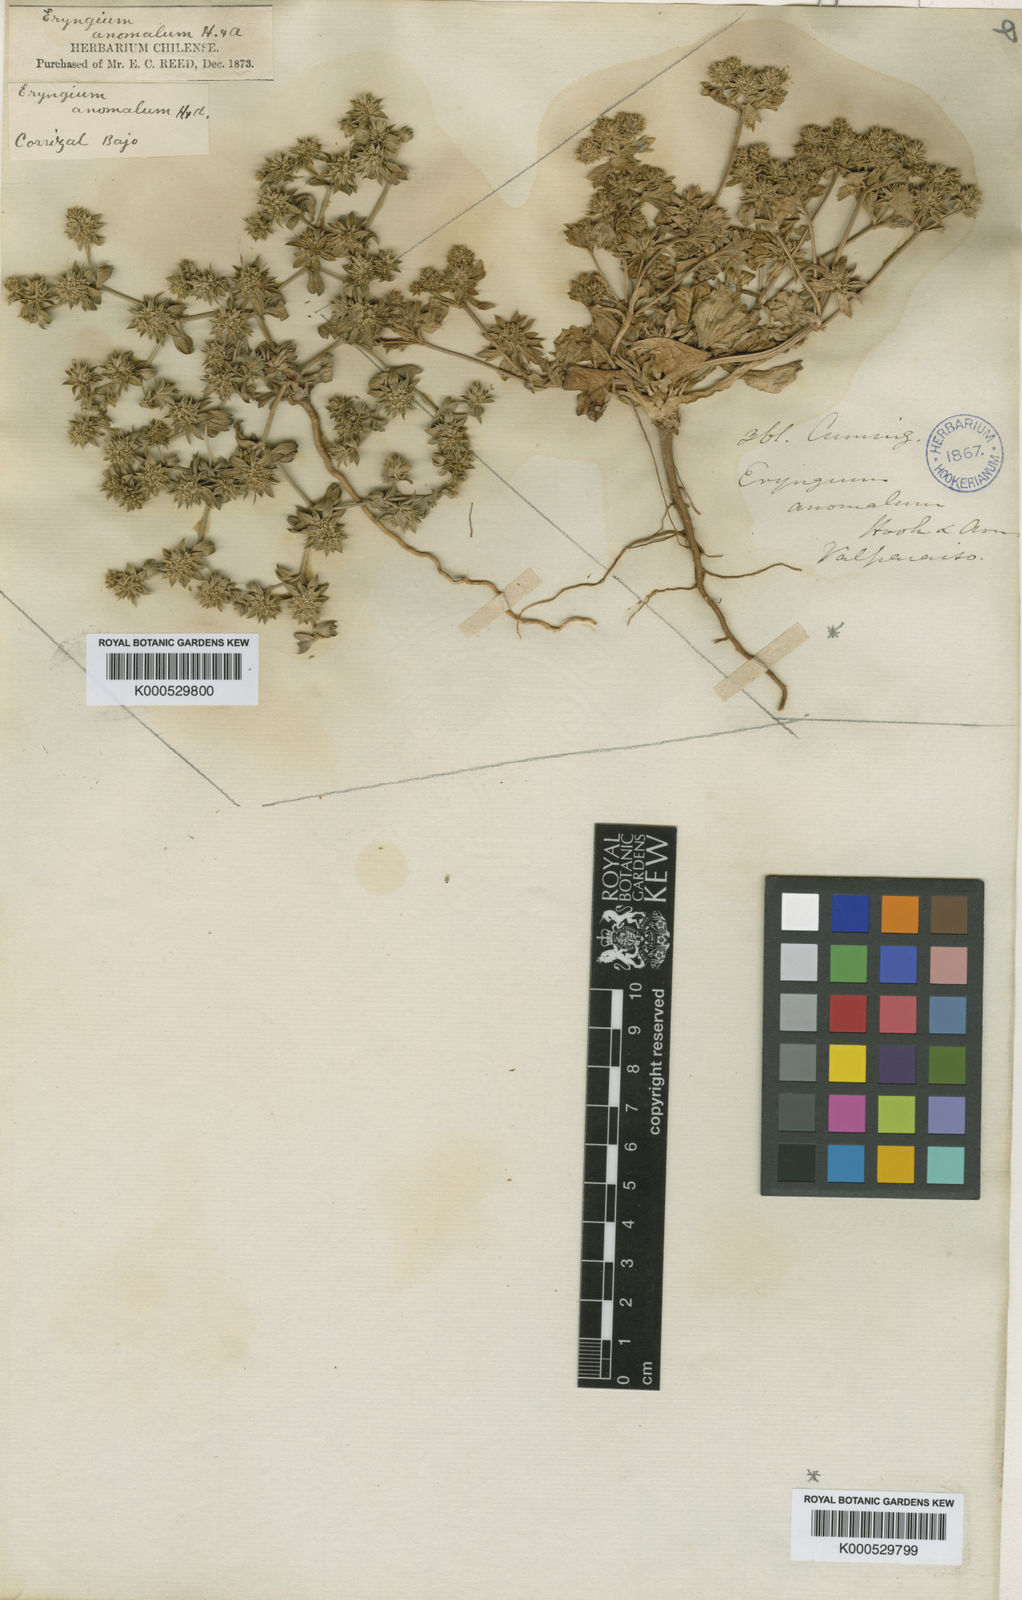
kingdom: Plantae
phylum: Tracheophyta
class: Magnoliopsida
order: Apiales
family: Apiaceae
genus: Eryngium
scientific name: Eryngium anomalum
